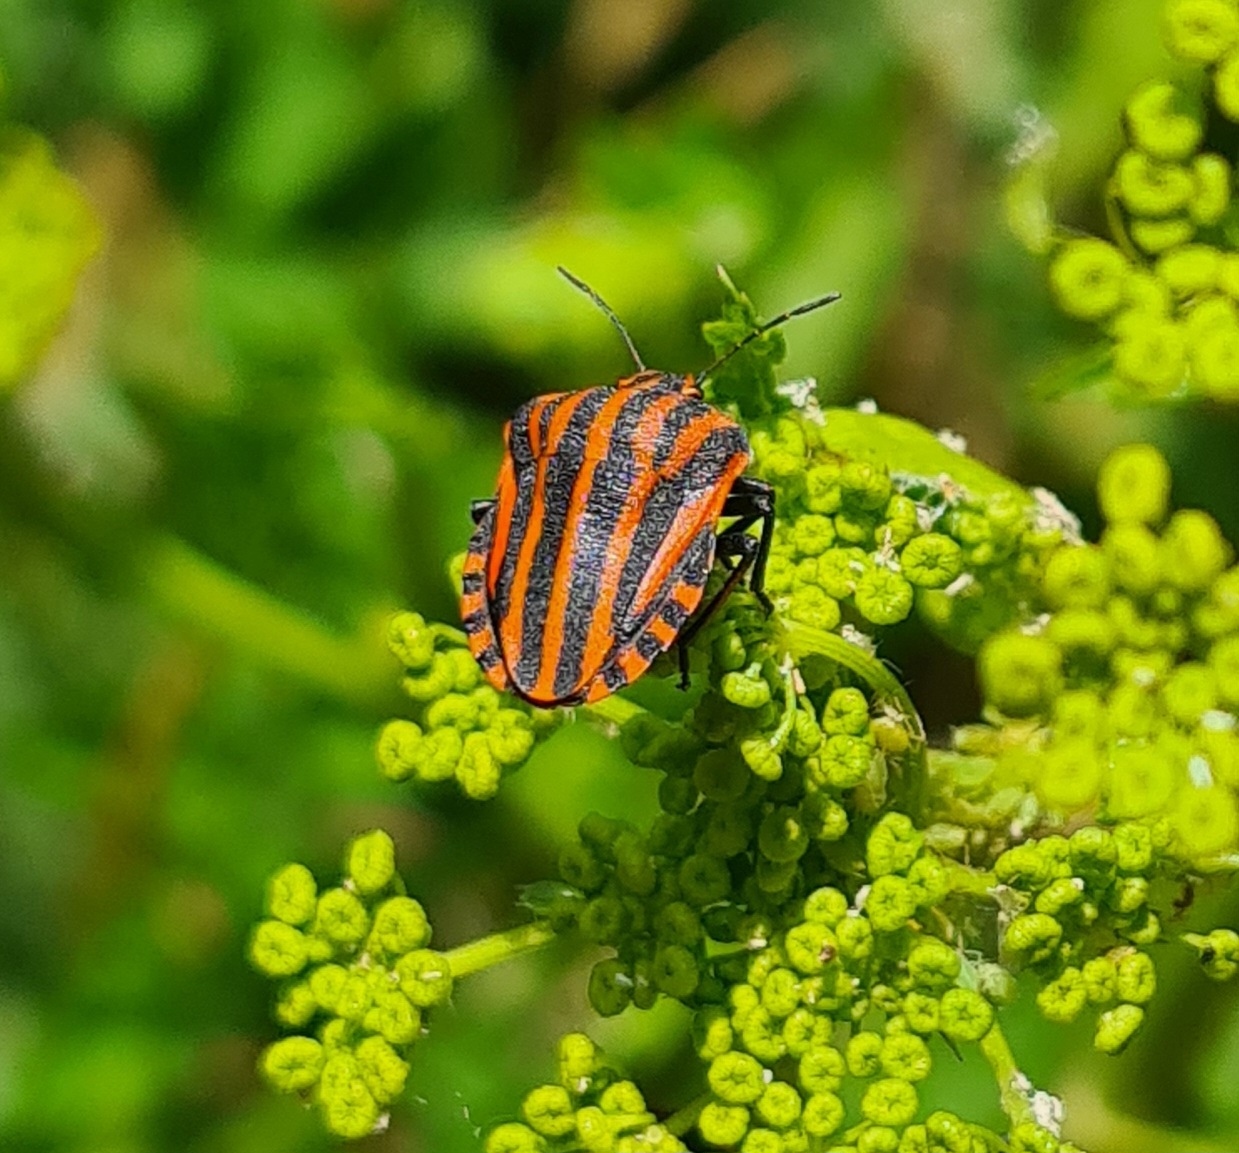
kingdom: Animalia
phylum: Arthropoda
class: Insecta
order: Hemiptera
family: Pentatomidae
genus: Graphosoma
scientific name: Graphosoma italicum
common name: Stribetæge
